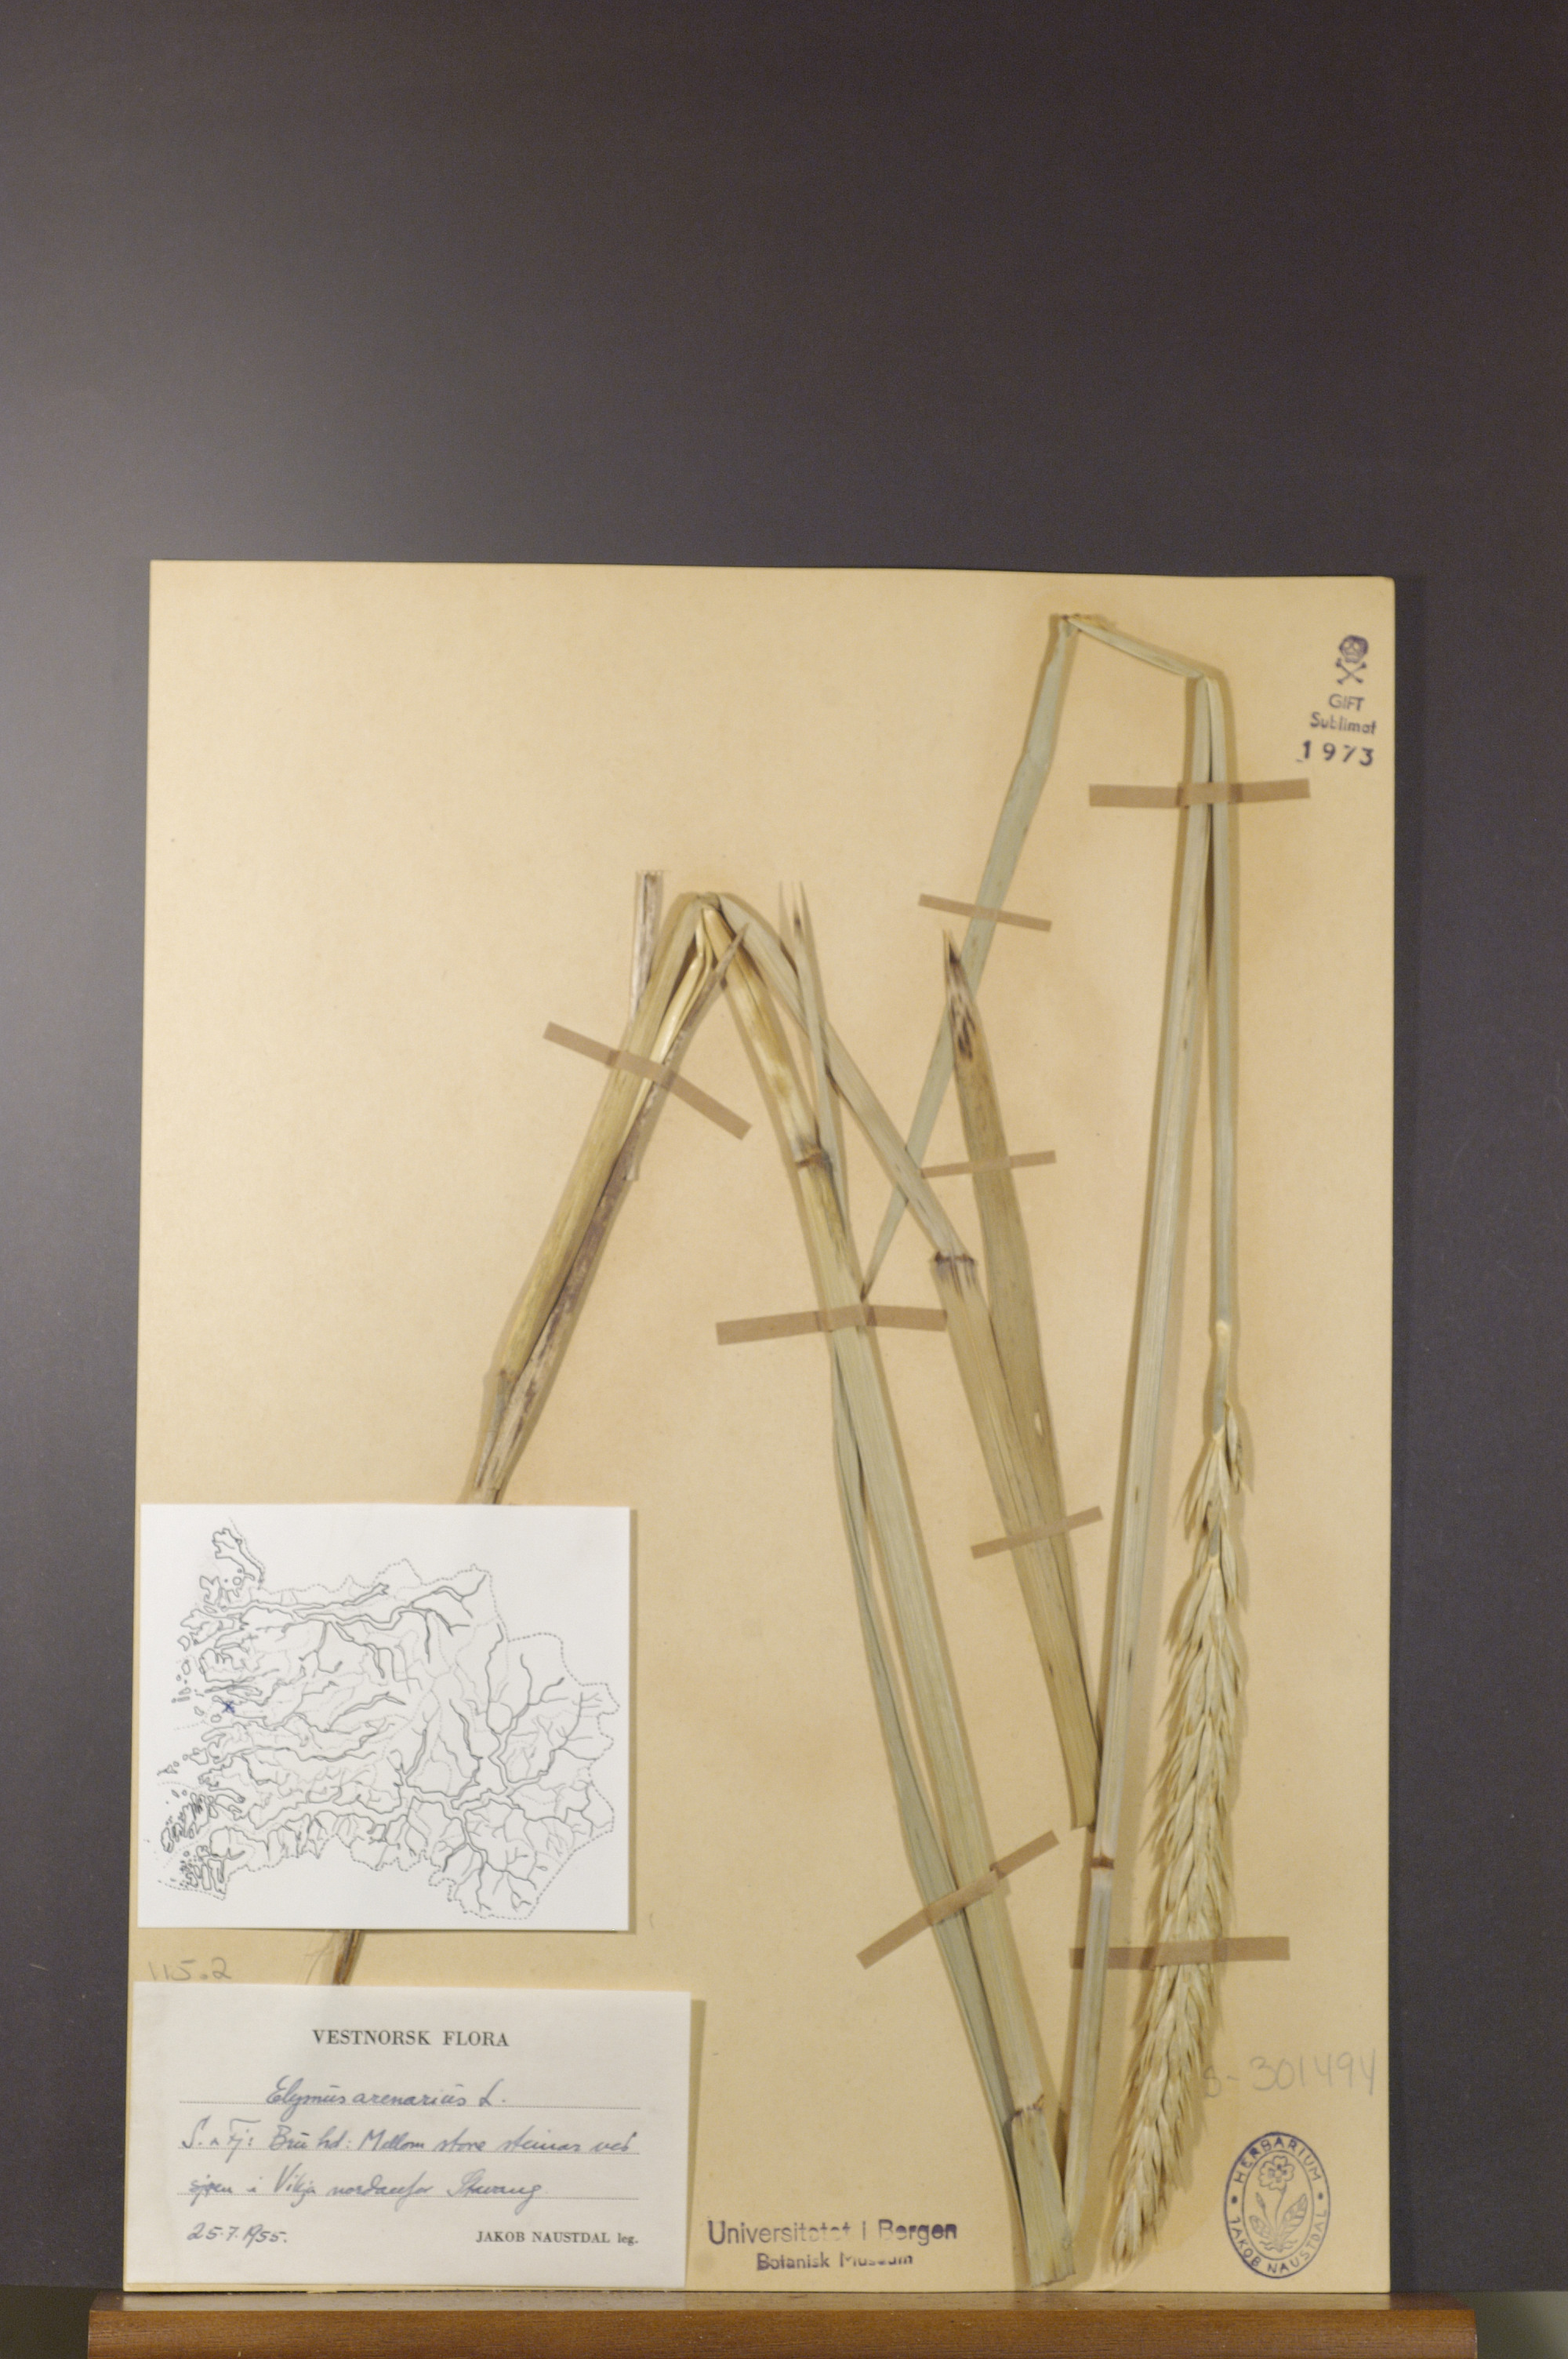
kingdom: Plantae
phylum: Tracheophyta
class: Liliopsida
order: Poales
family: Poaceae
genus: Leymus
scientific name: Leymus arenarius
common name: Lyme-grass
